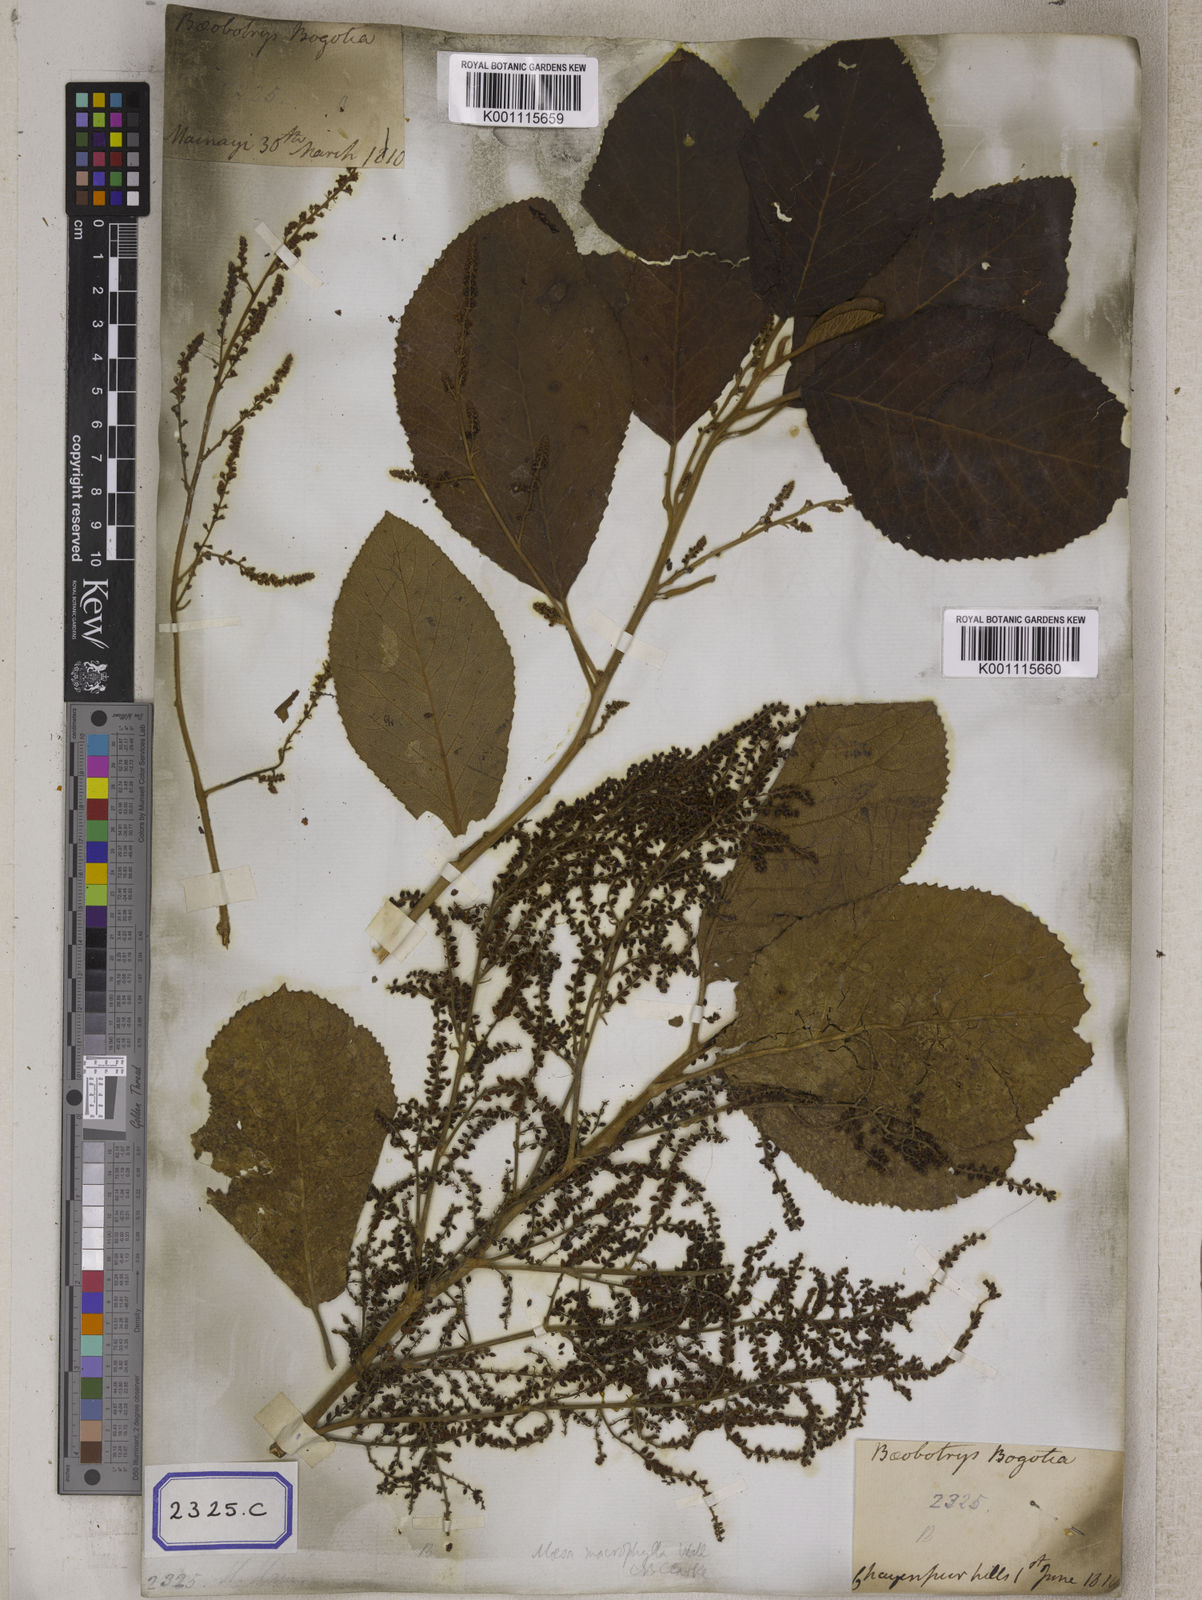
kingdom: Plantae
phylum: Tracheophyta
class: Magnoliopsida
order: Ericales
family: Primulaceae
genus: Maesa
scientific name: Maesa macrophylla
